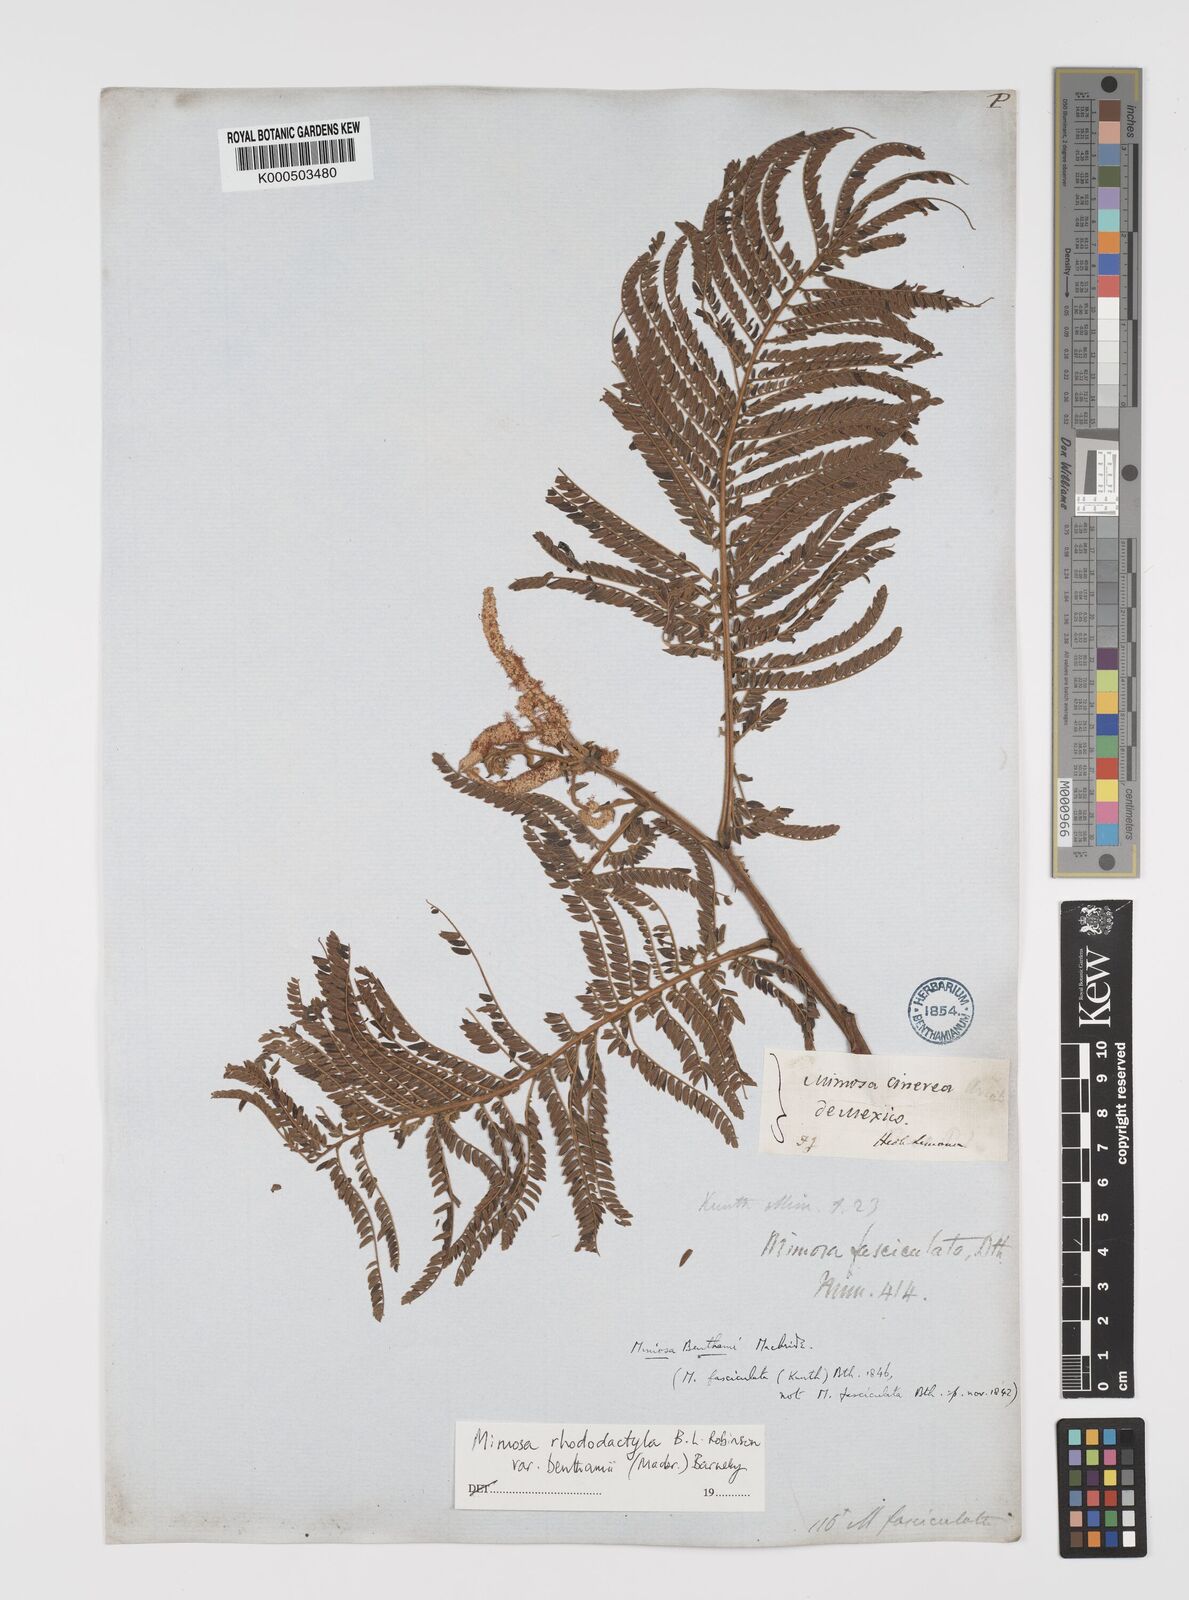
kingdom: Plantae
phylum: Tracheophyta
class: Magnoliopsida
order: Fabales
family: Fabaceae
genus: Mimosa
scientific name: Mimosa benthamii
